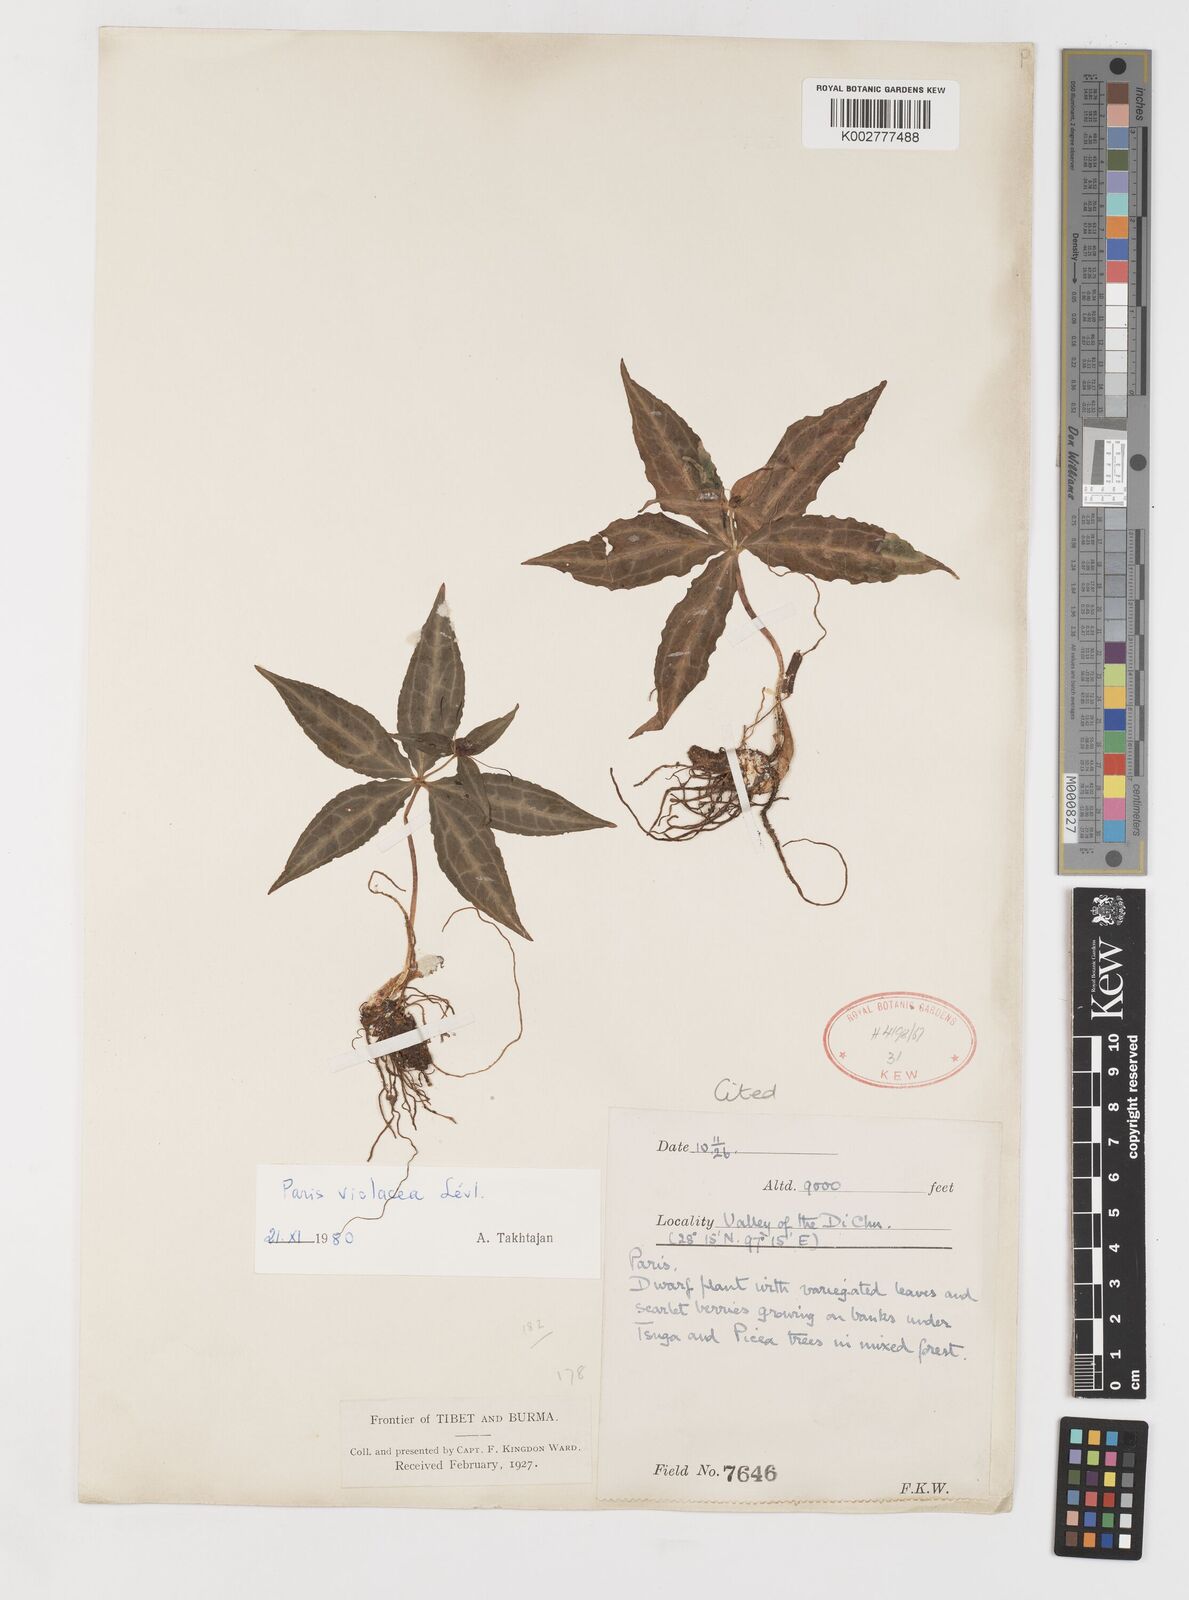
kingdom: Plantae
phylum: Tracheophyta
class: Liliopsida
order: Liliales
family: Melanthiaceae
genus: Paris
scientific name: Paris mairei
